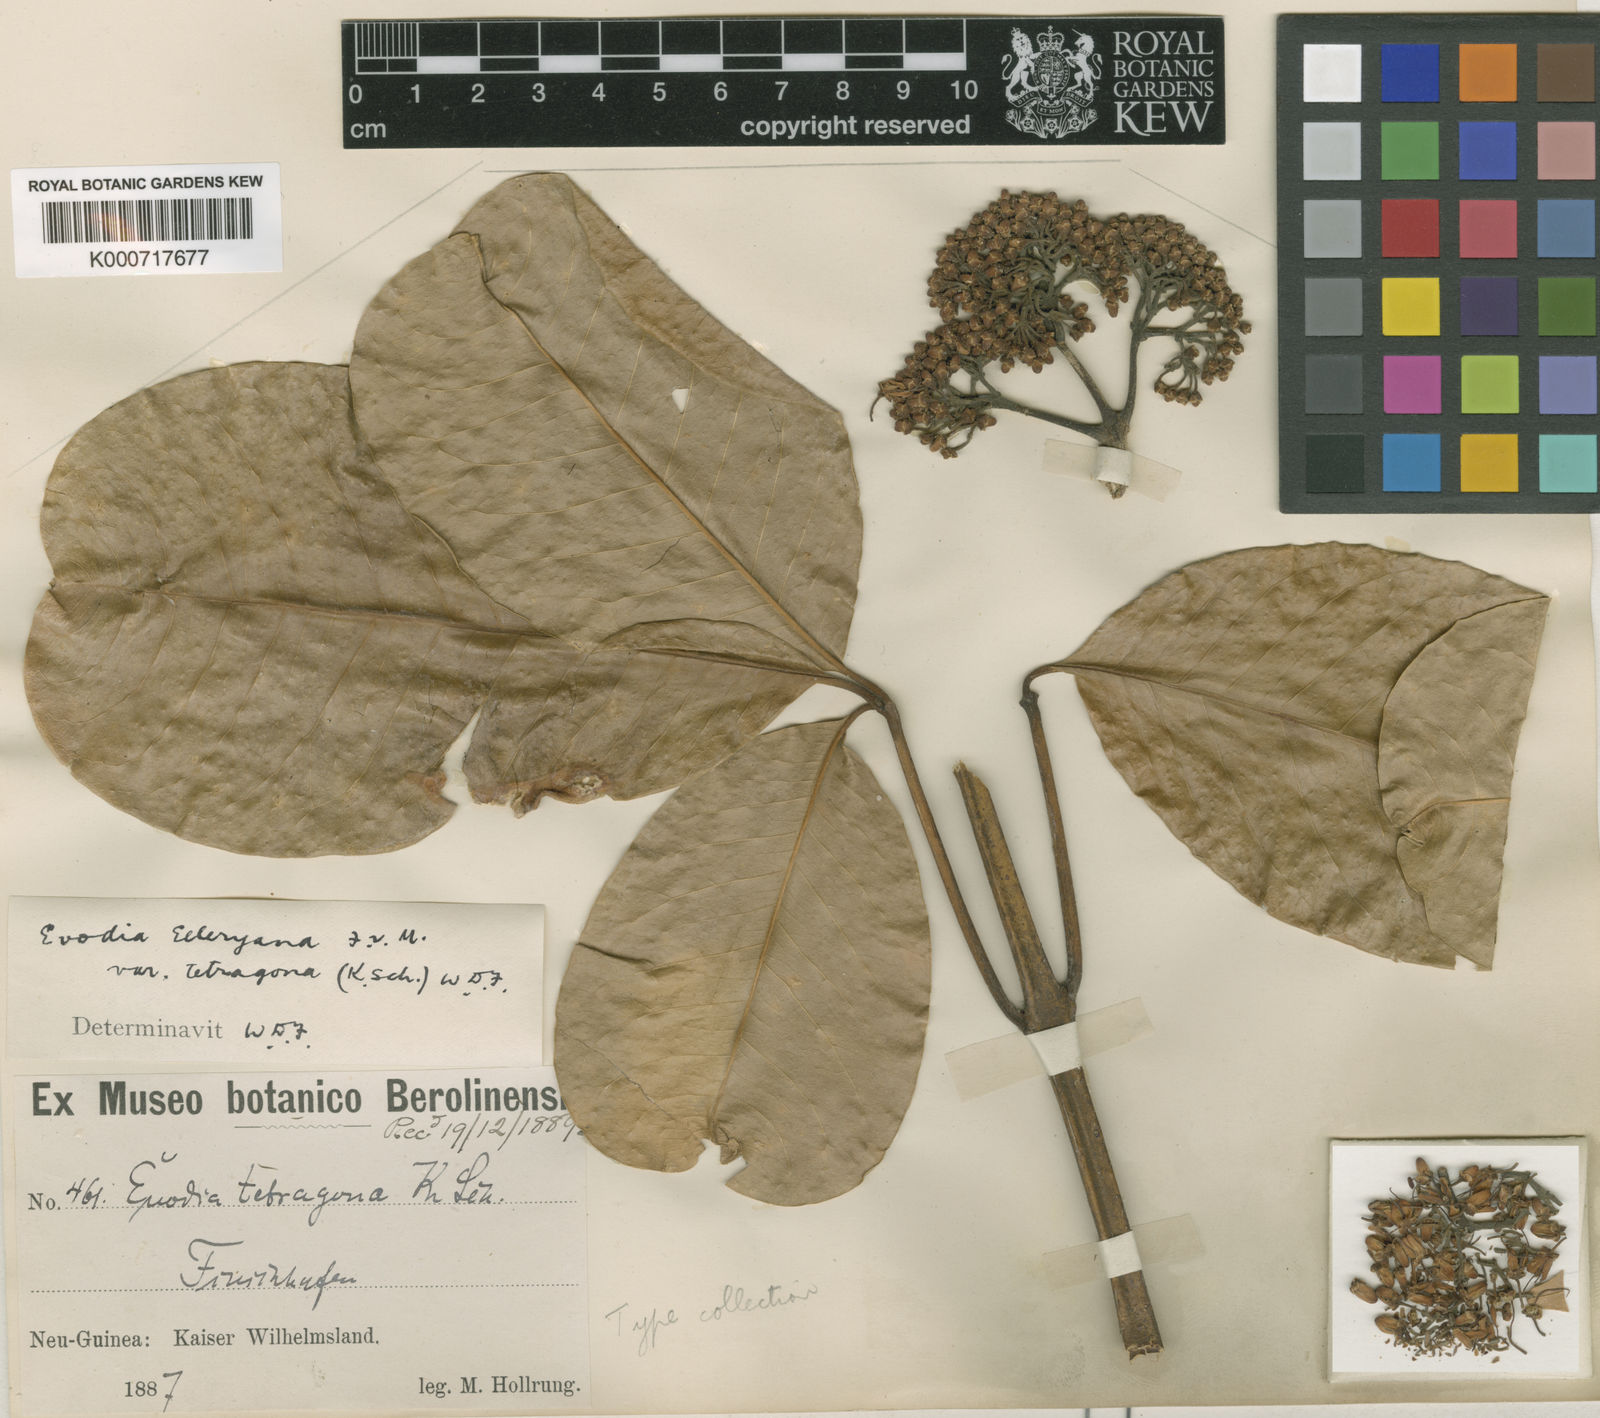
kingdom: Plantae
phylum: Tracheophyta
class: Magnoliopsida
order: Sapindales
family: Rutaceae
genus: Melicope
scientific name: Melicope elleryana
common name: Pink euodia
